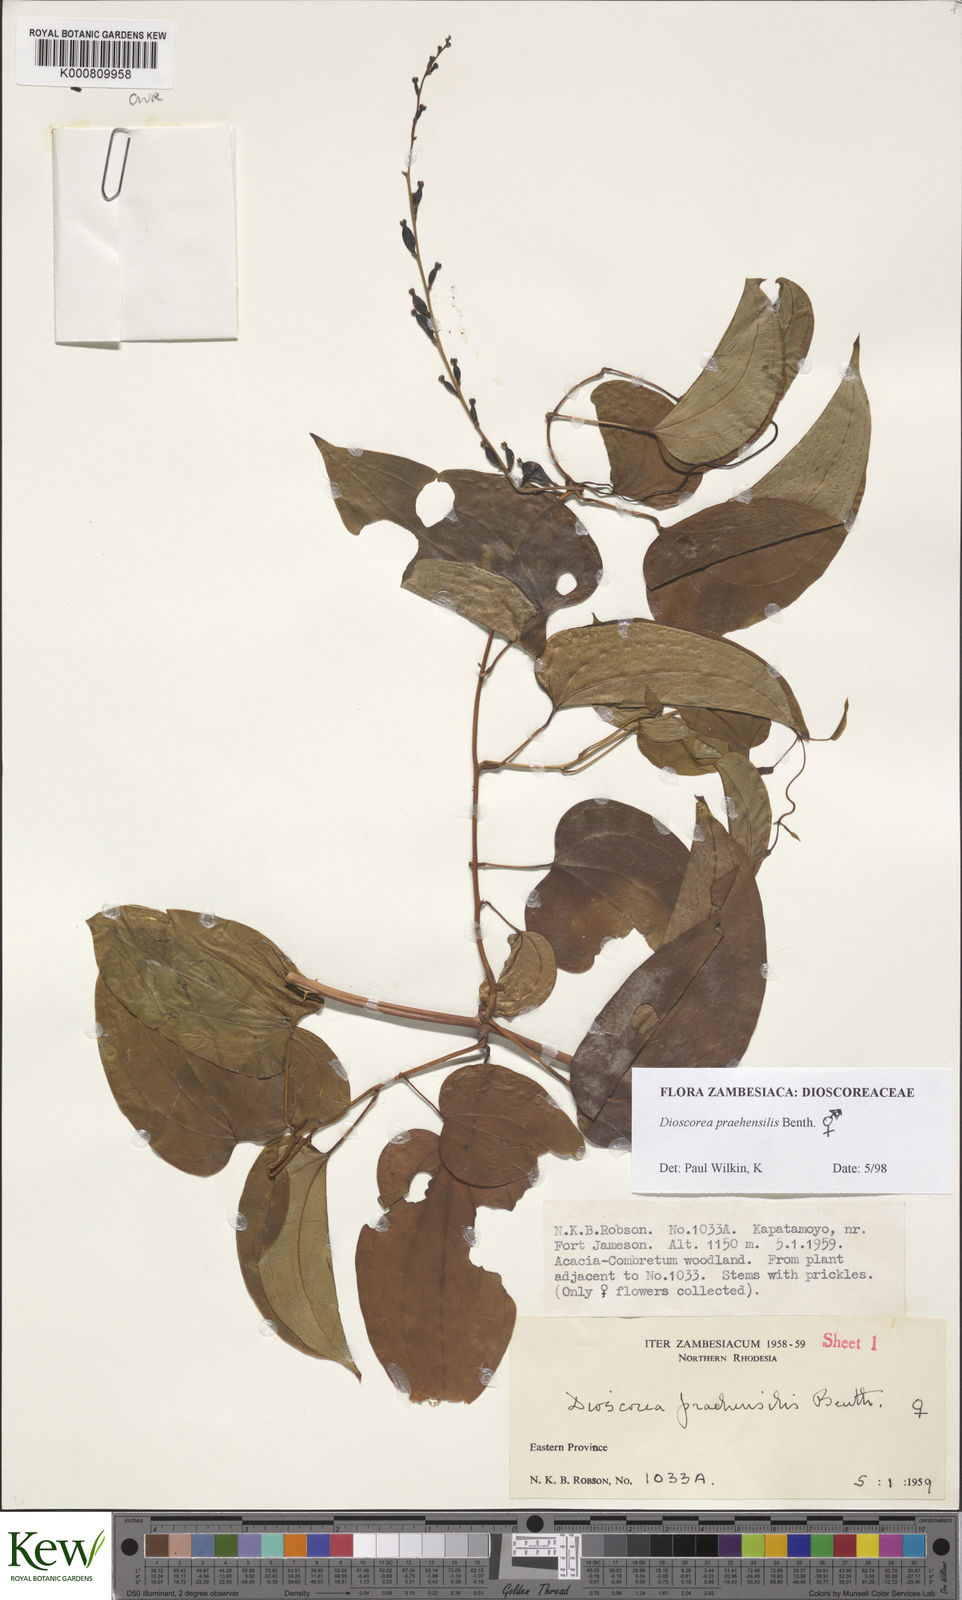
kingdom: Plantae
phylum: Tracheophyta
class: Liliopsida
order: Dioscoreales
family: Dioscoreaceae
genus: Dioscorea
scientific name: Dioscorea praehensilis
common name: Bush yam
